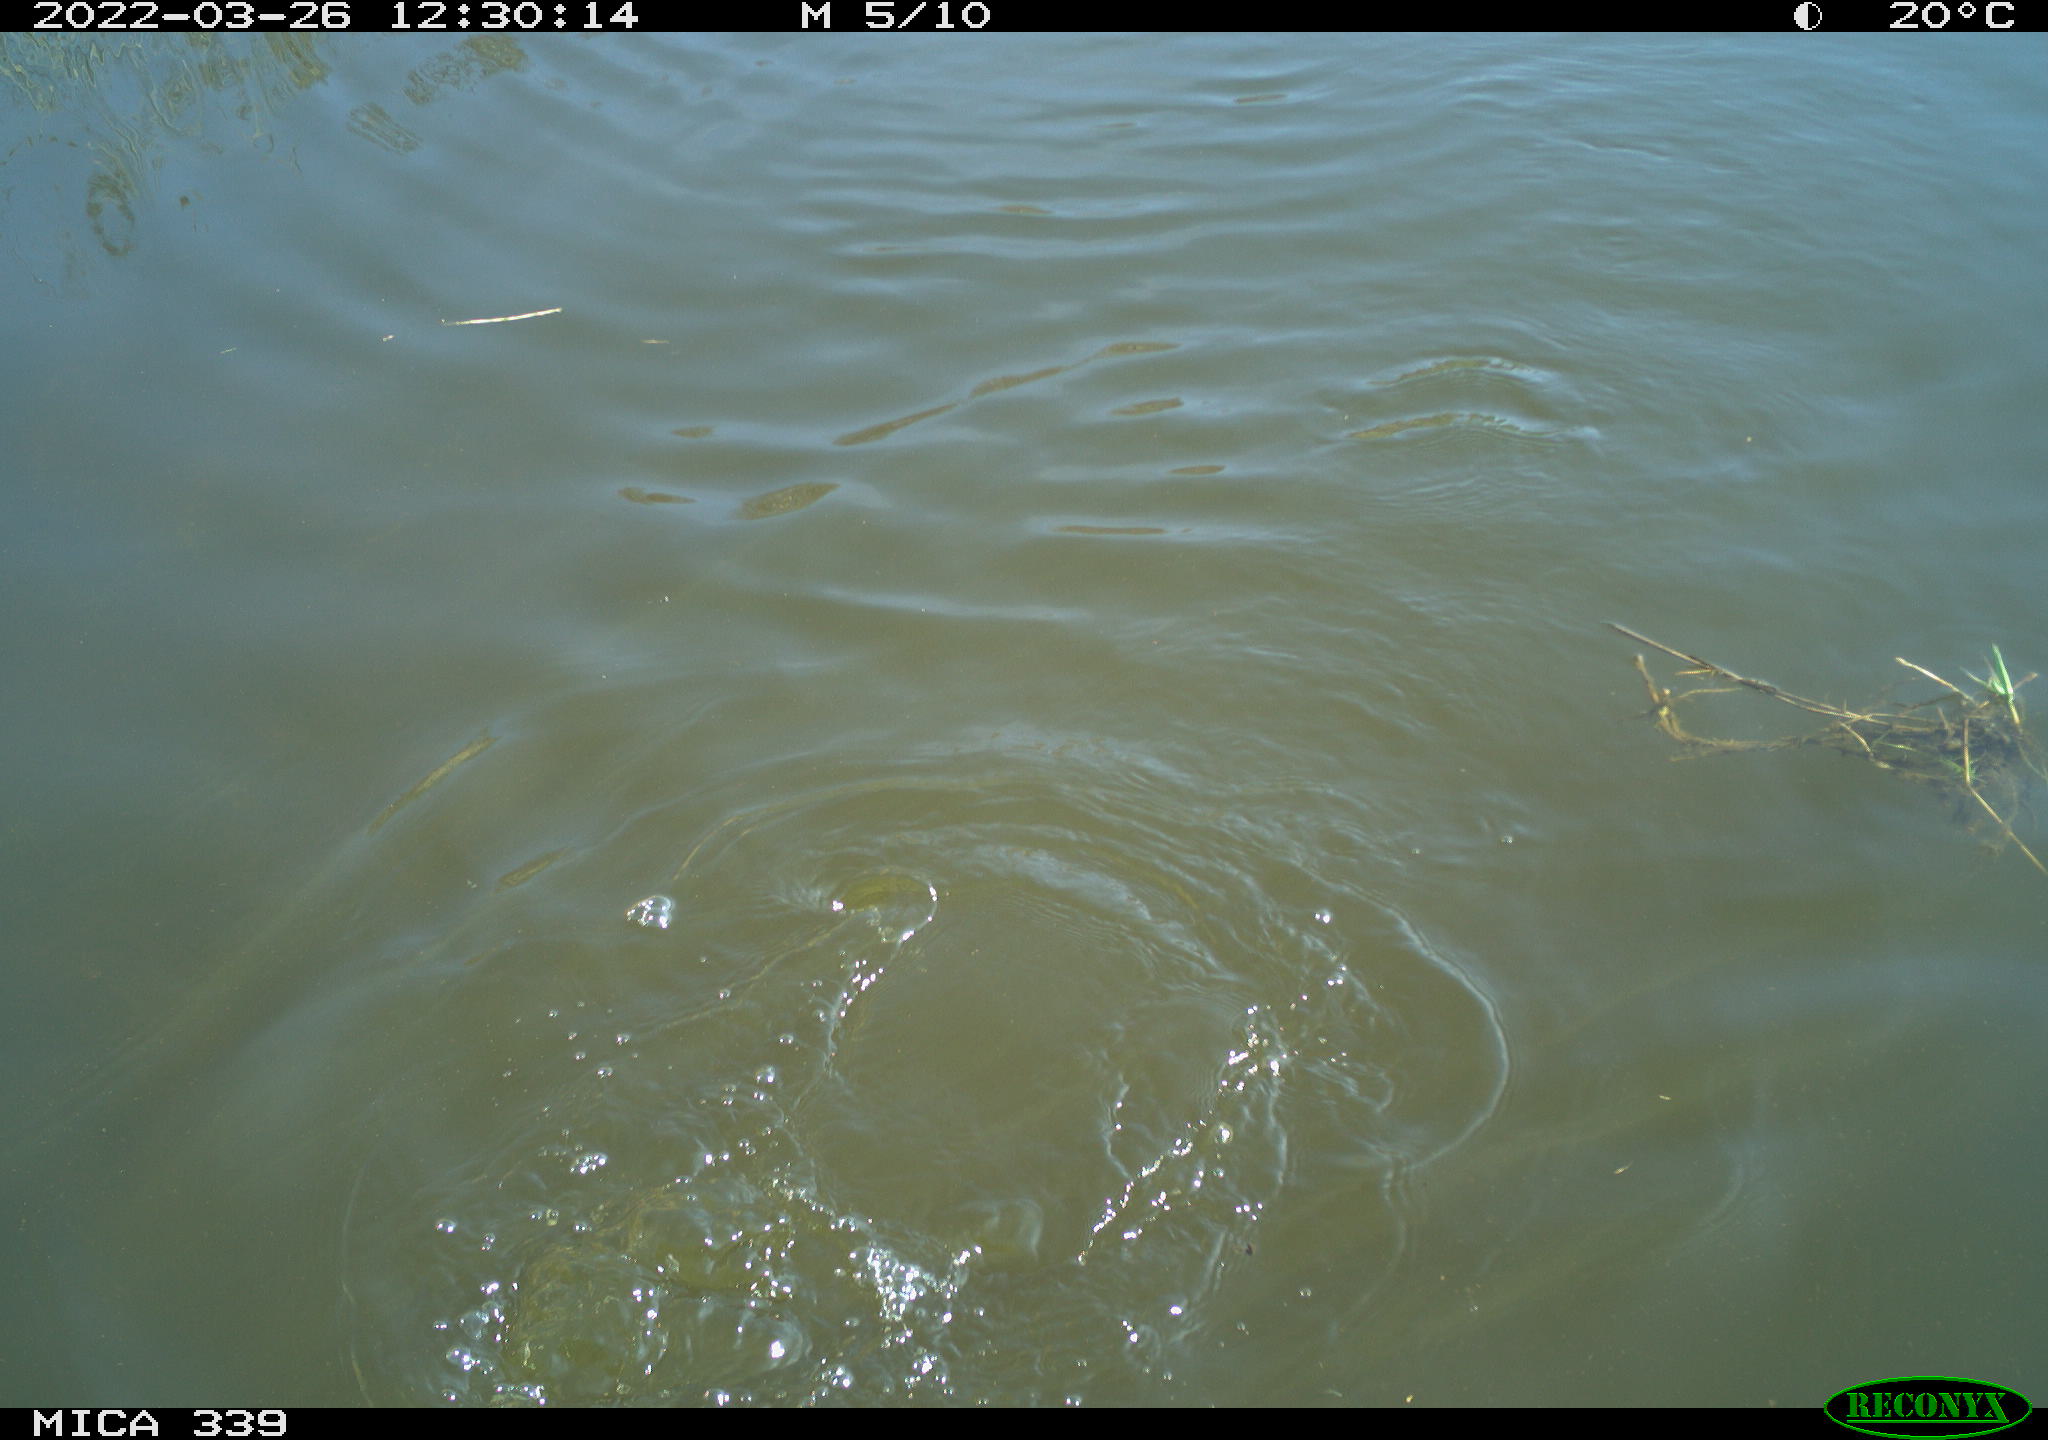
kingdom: Animalia
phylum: Chordata
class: Aves
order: Suliformes
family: Phalacrocoracidae
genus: Phalacrocorax
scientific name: Phalacrocorax carbo
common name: Great cormorant
